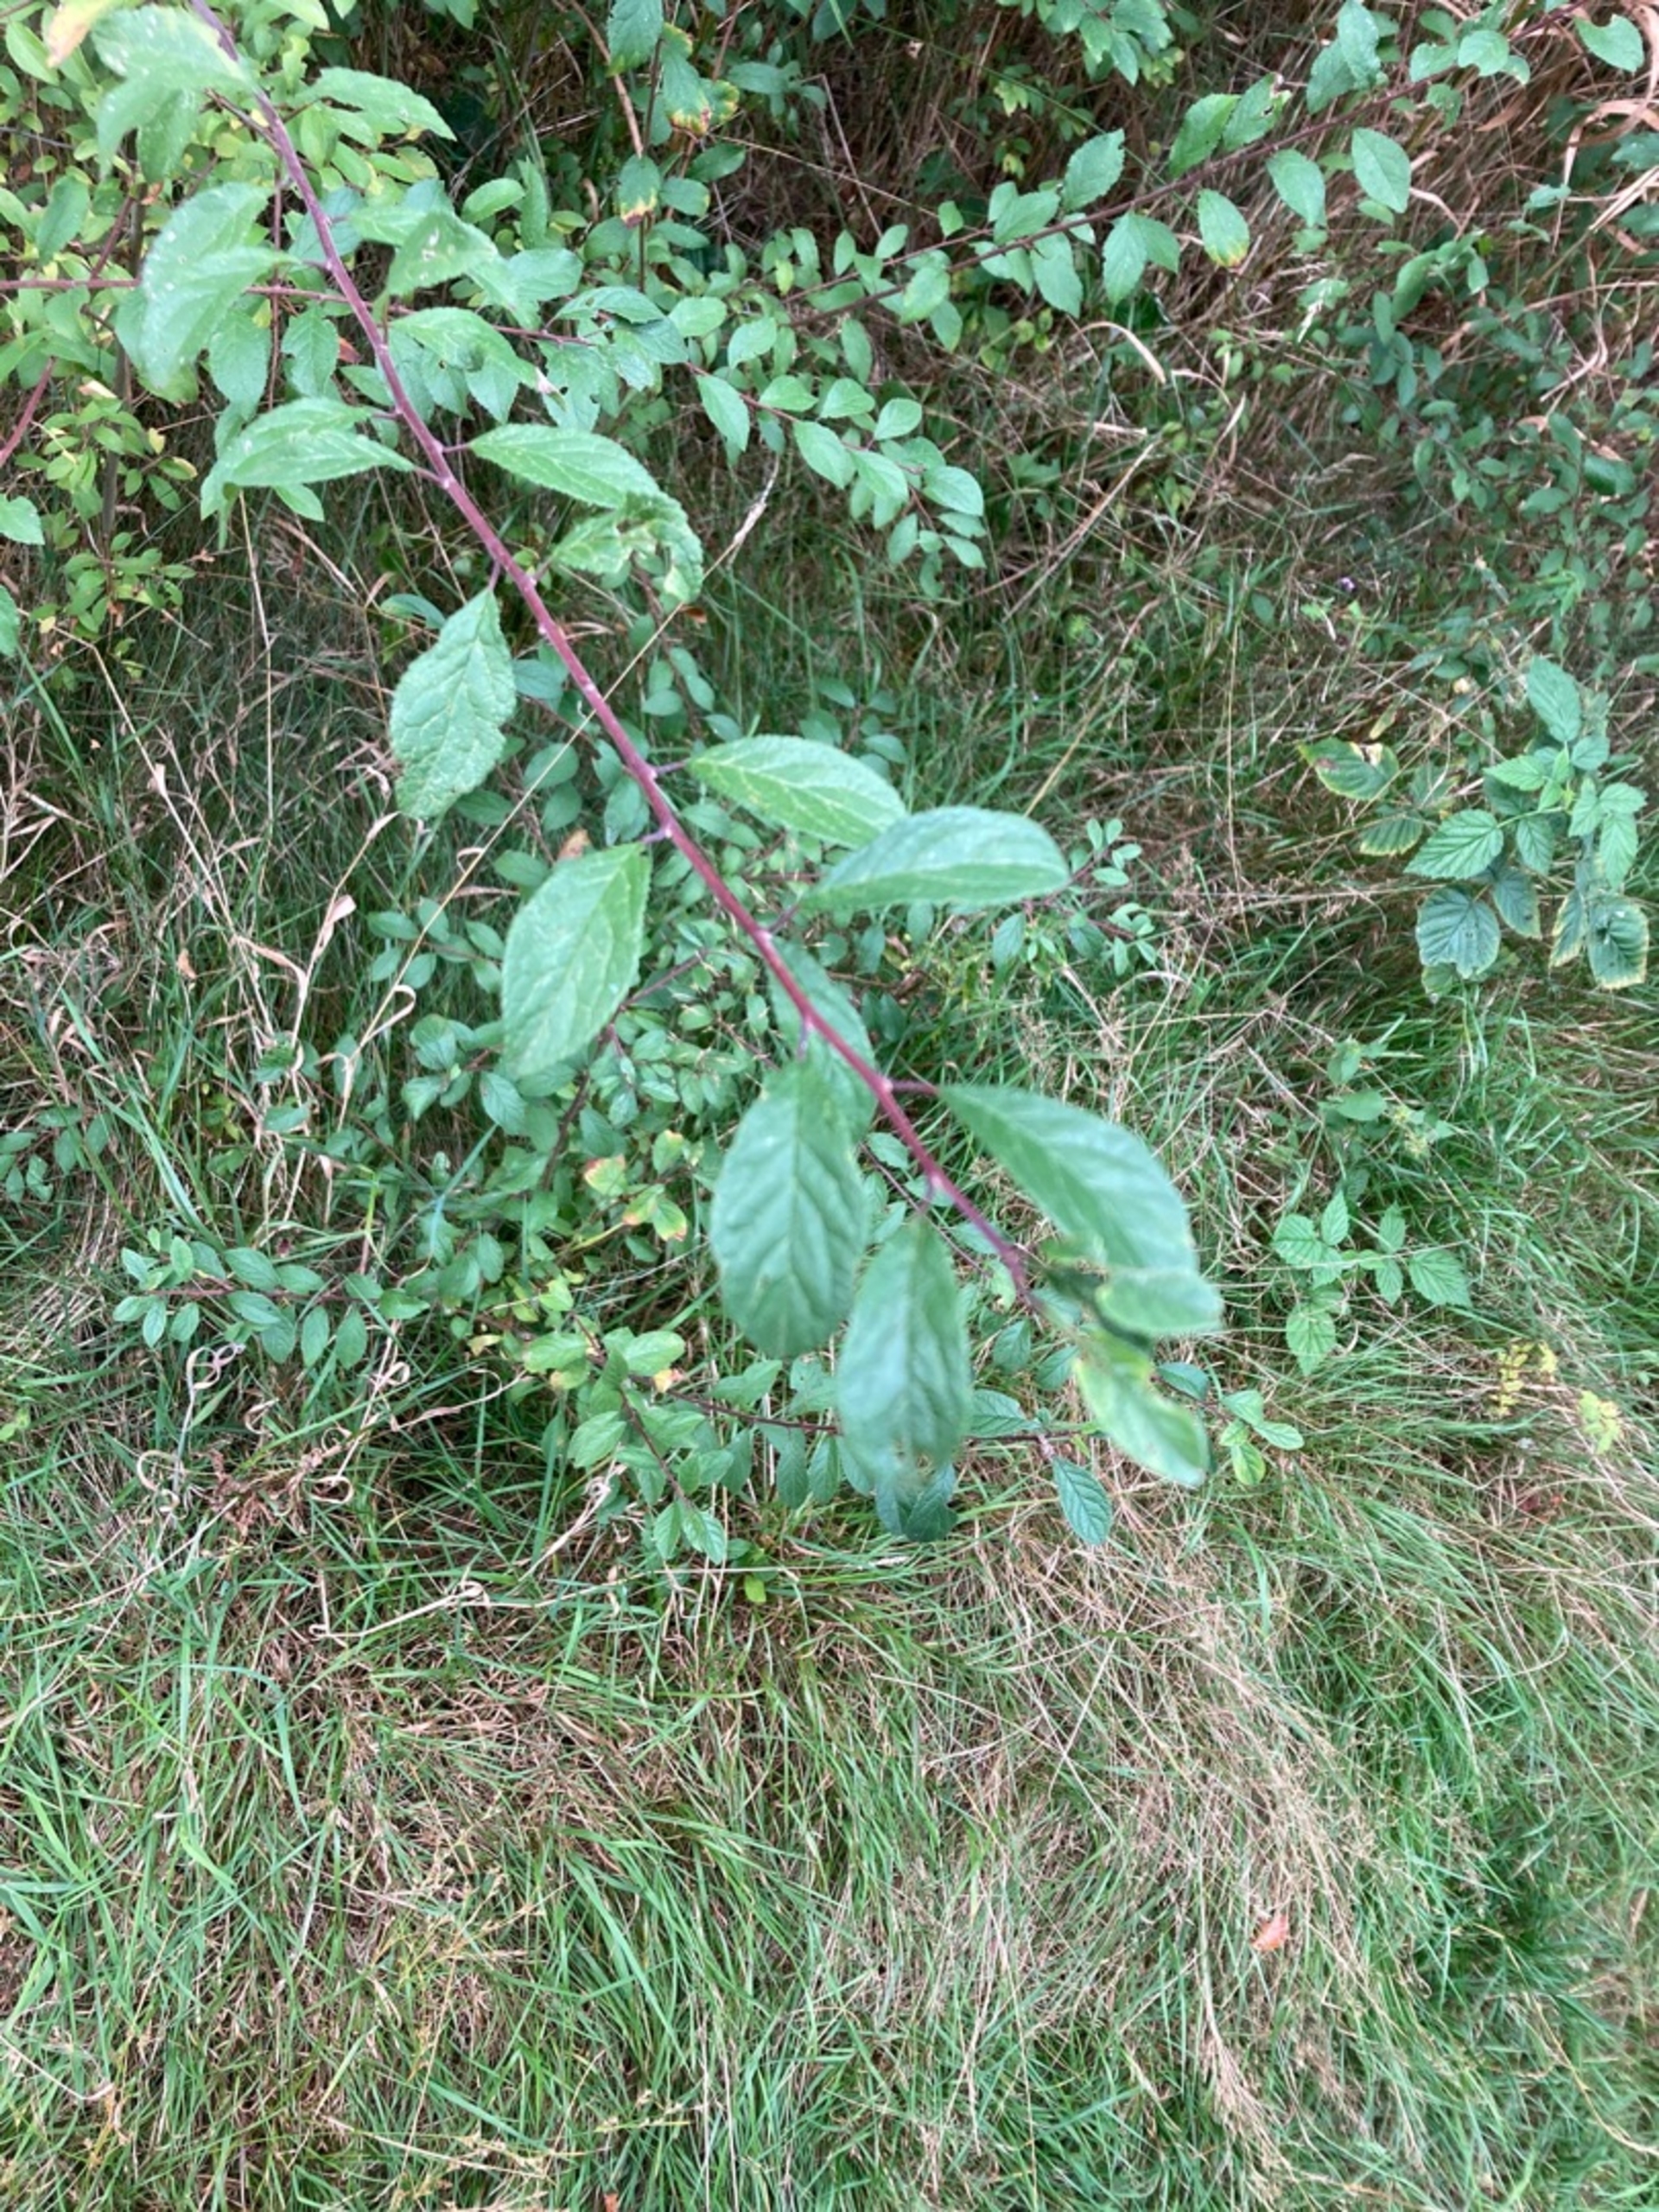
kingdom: Plantae
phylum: Tracheophyta
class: Magnoliopsida
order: Rosales
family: Rosaceae
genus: Prunus
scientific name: Prunus spinosa
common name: Slåen
